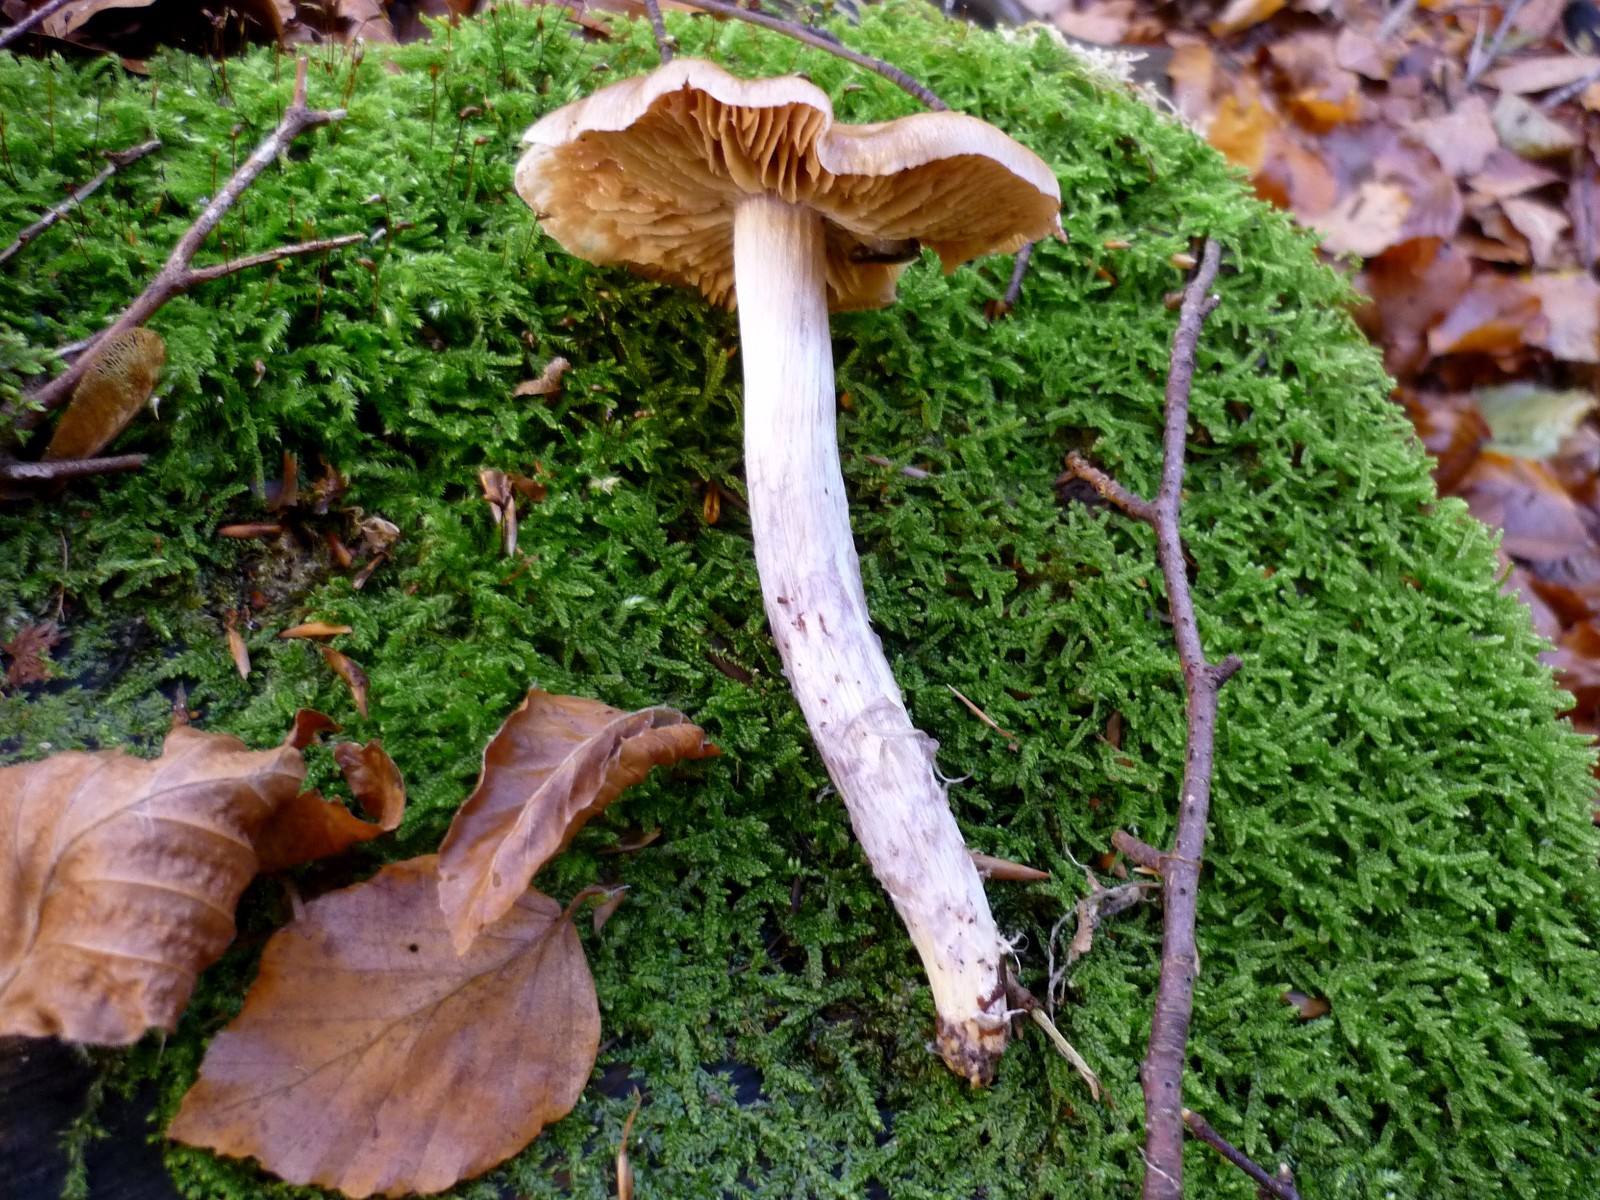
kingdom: Fungi
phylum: Basidiomycota
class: Agaricomycetes
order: Agaricales
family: Cortinariaceae
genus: Cortinarius
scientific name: Cortinarius elatior
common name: høj slørhat
